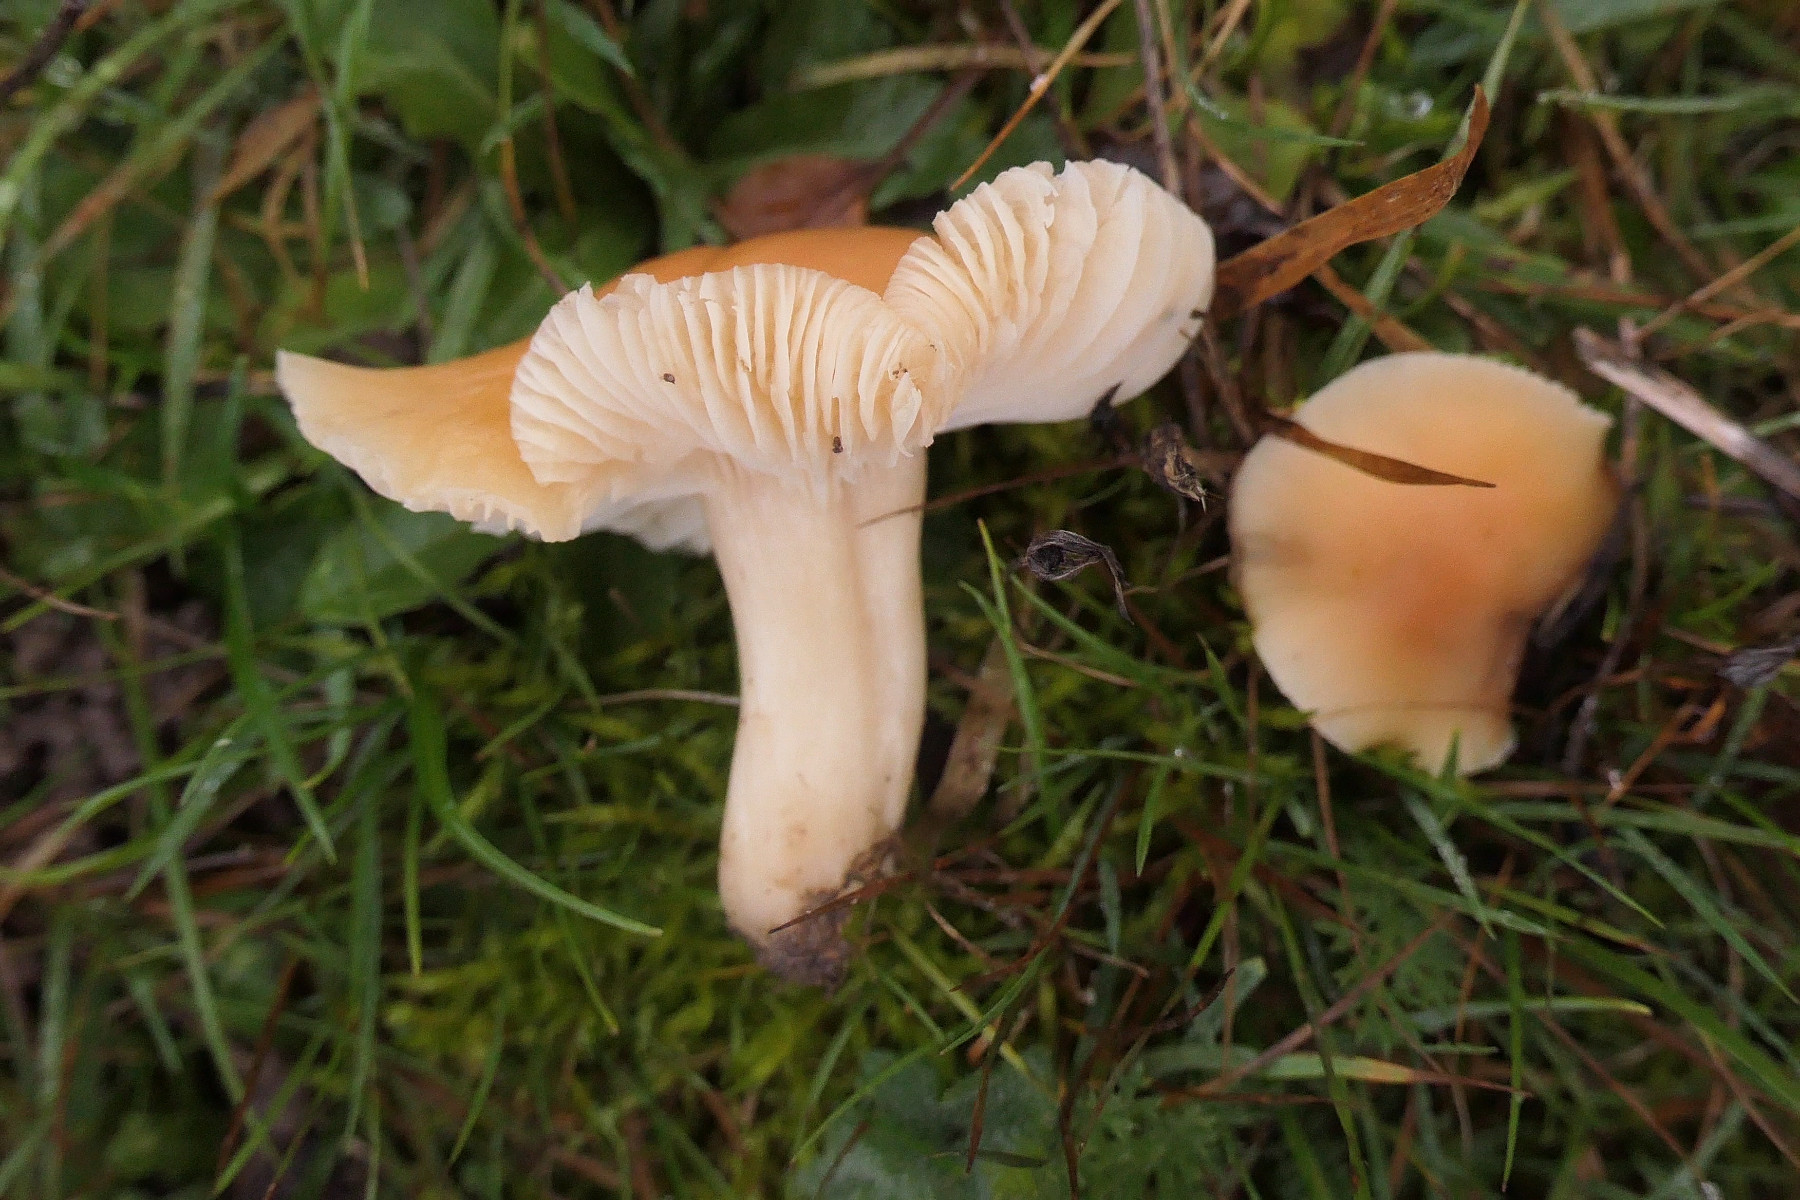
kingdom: Fungi
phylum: Basidiomycota
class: Agaricomycetes
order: Agaricales
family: Hygrophoraceae
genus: Cuphophyllus
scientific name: Cuphophyllus pratensis
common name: eng-vokshat
